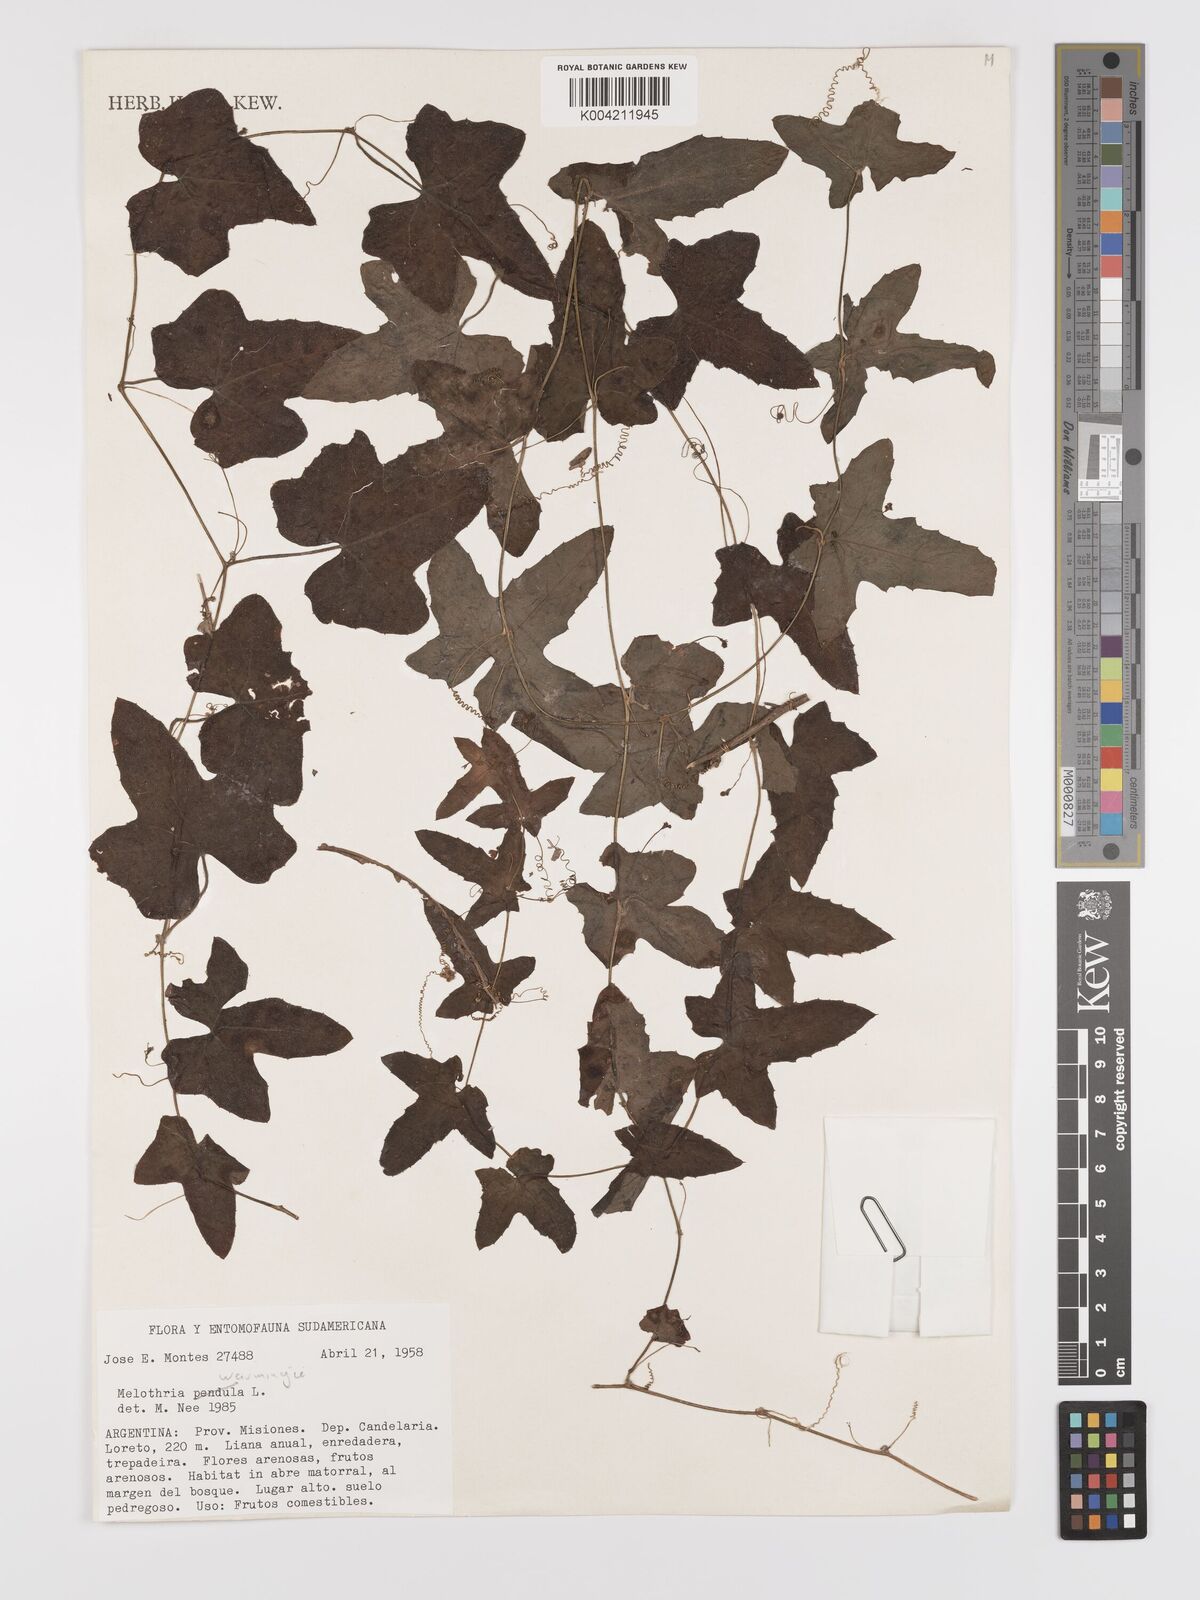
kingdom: Plantae
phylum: Tracheophyta
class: Magnoliopsida
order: Cucurbitales
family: Cucurbitaceae
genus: Melothria
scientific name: Melothria warmingii
